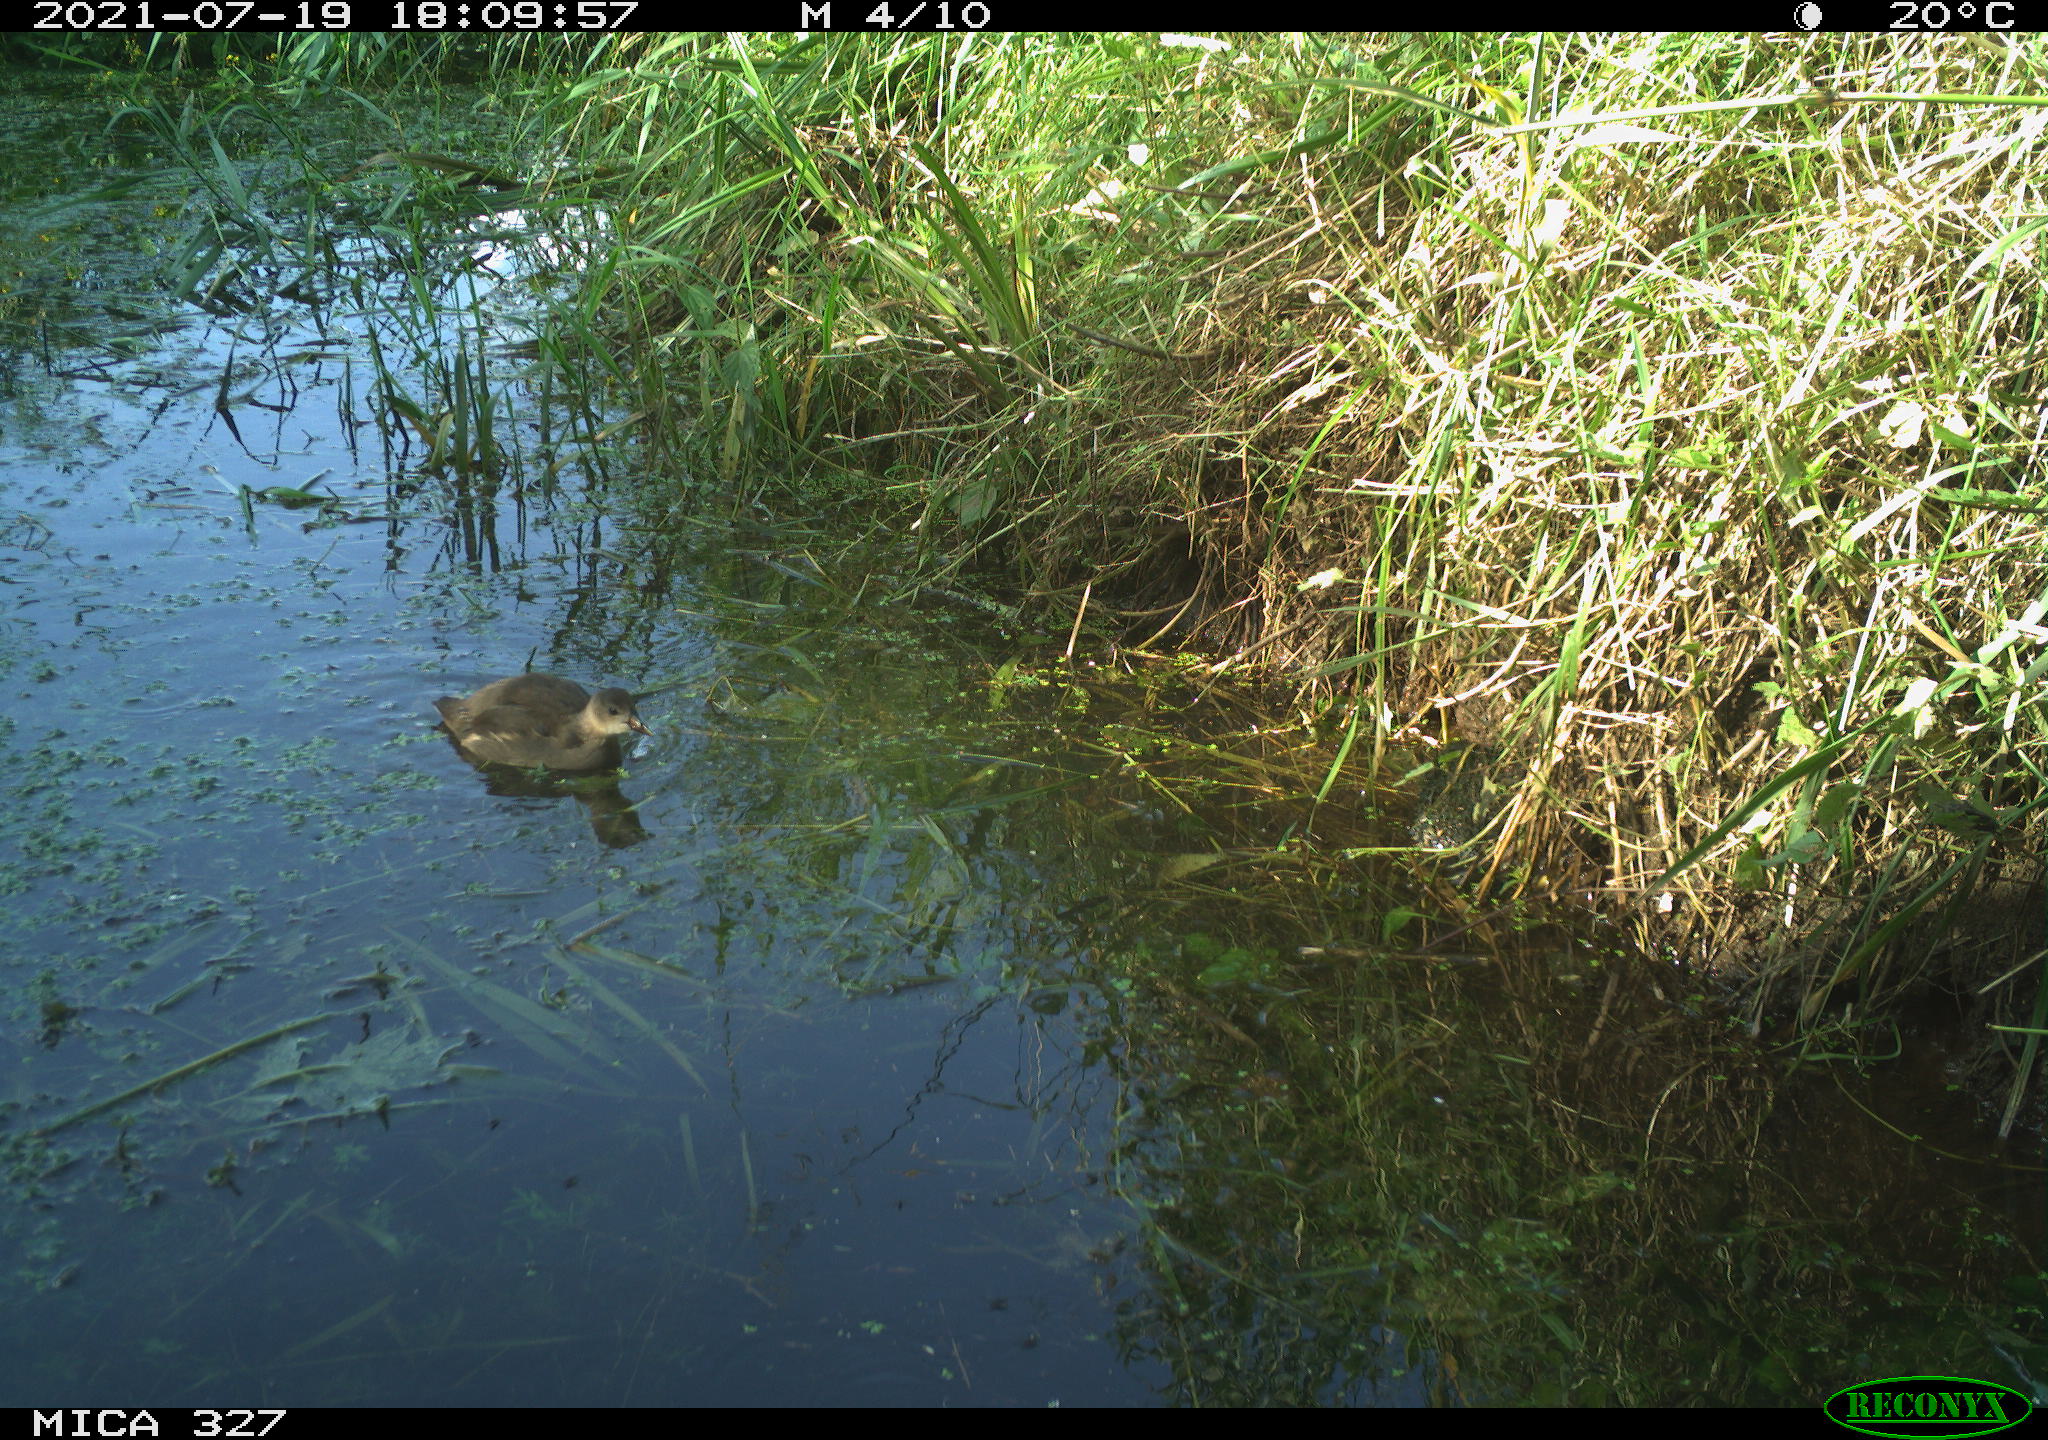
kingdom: Animalia
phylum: Chordata
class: Aves
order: Gruiformes
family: Rallidae
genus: Gallinula
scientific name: Gallinula chloropus
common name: Common moorhen
